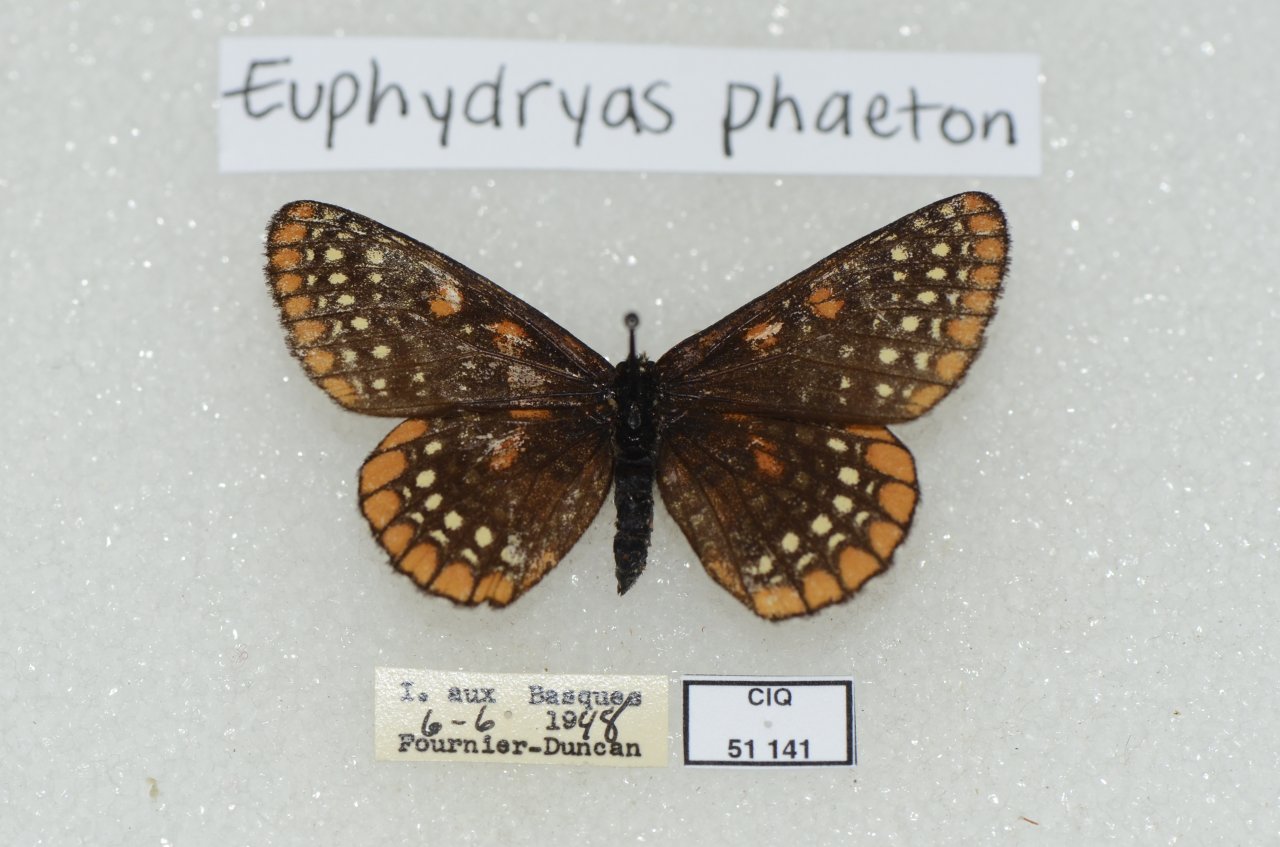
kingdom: Animalia
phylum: Arthropoda
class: Insecta
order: Lepidoptera
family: Nymphalidae
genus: Euphydryas
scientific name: Euphydryas phaeton
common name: Baltimore Checkerspot
